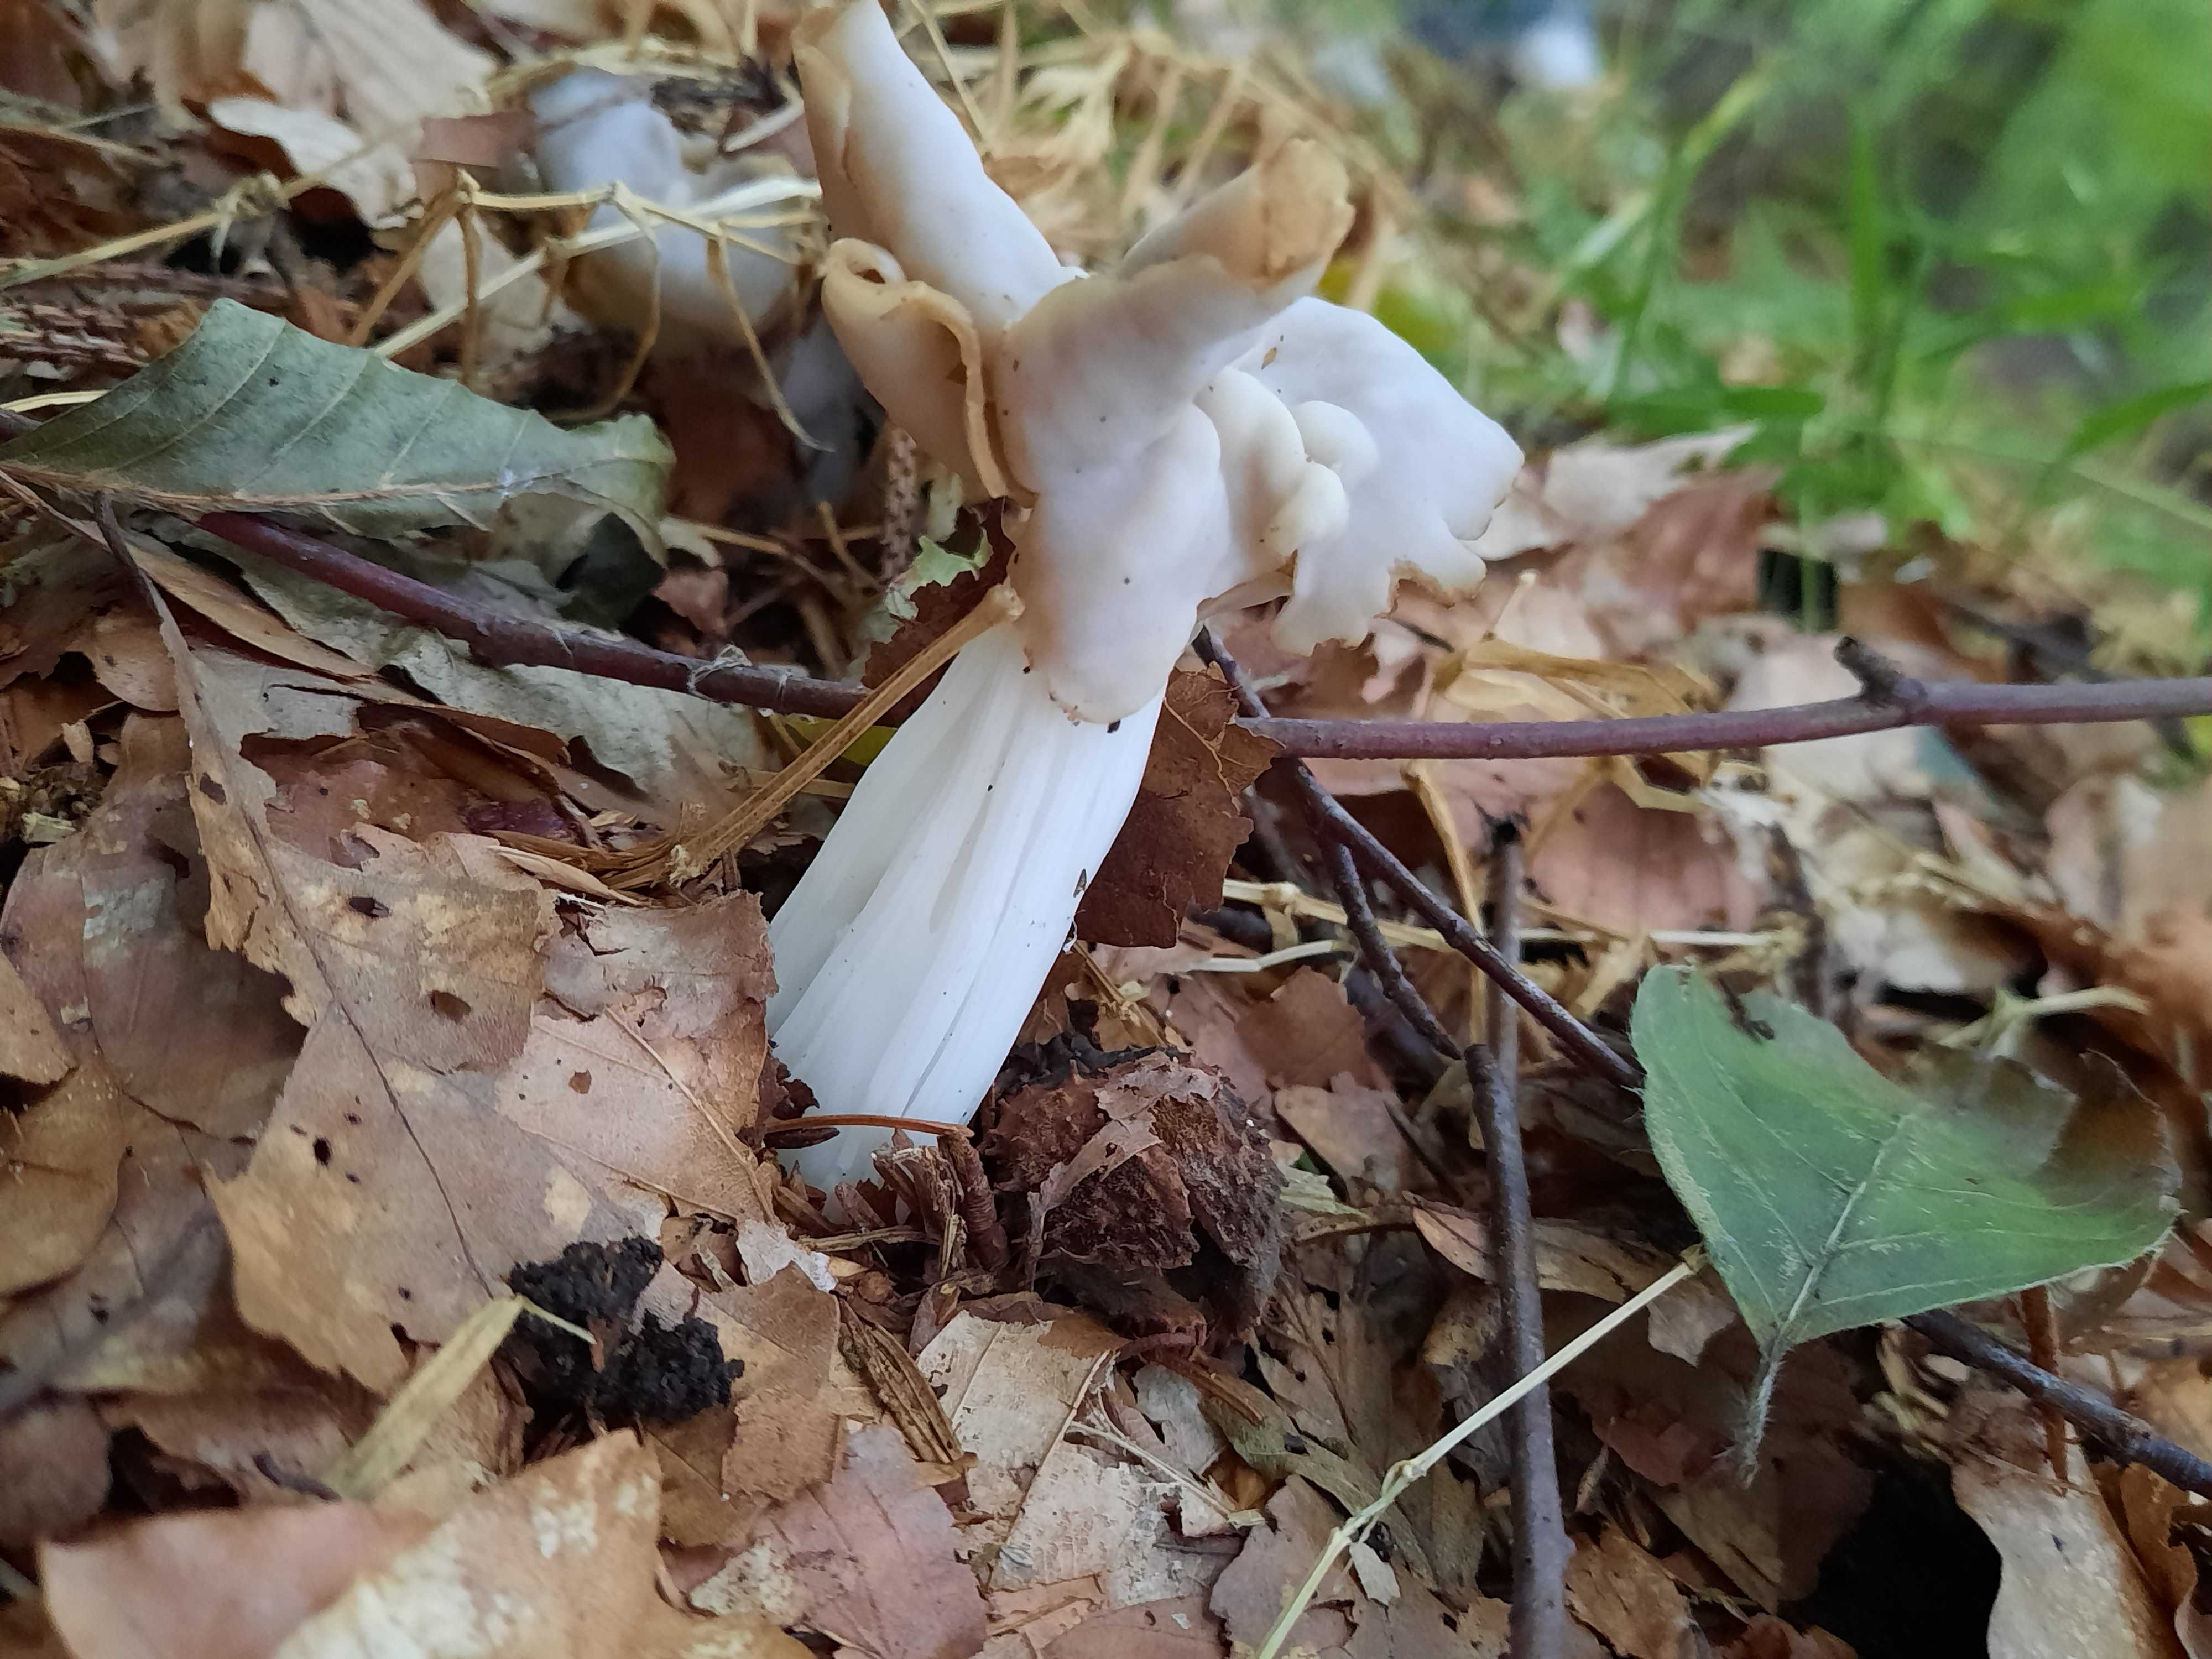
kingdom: Fungi
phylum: Ascomycota
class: Pezizomycetes
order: Pezizales
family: Helvellaceae
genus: Helvella
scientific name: Helvella crispa
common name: kruset foldhat
